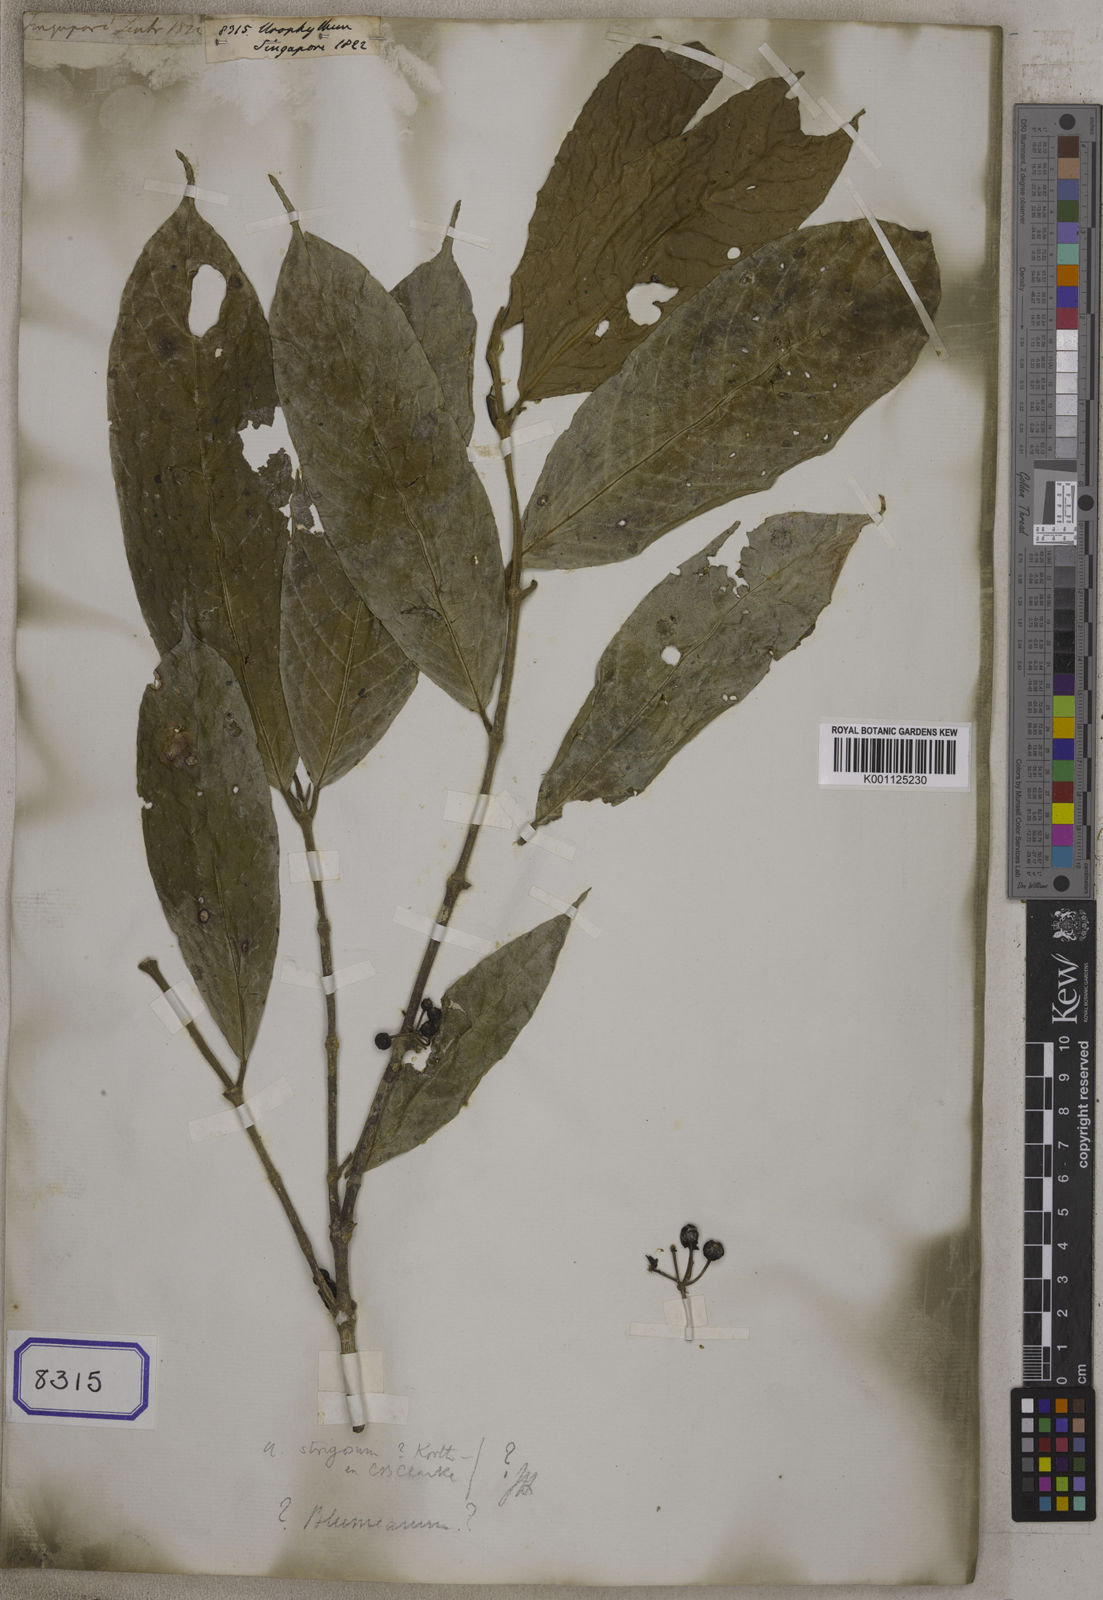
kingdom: Plantae
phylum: Tracheophyta
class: Magnoliopsida
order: Gentianales
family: Rubiaceae
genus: Urophyllum
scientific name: Urophyllum
